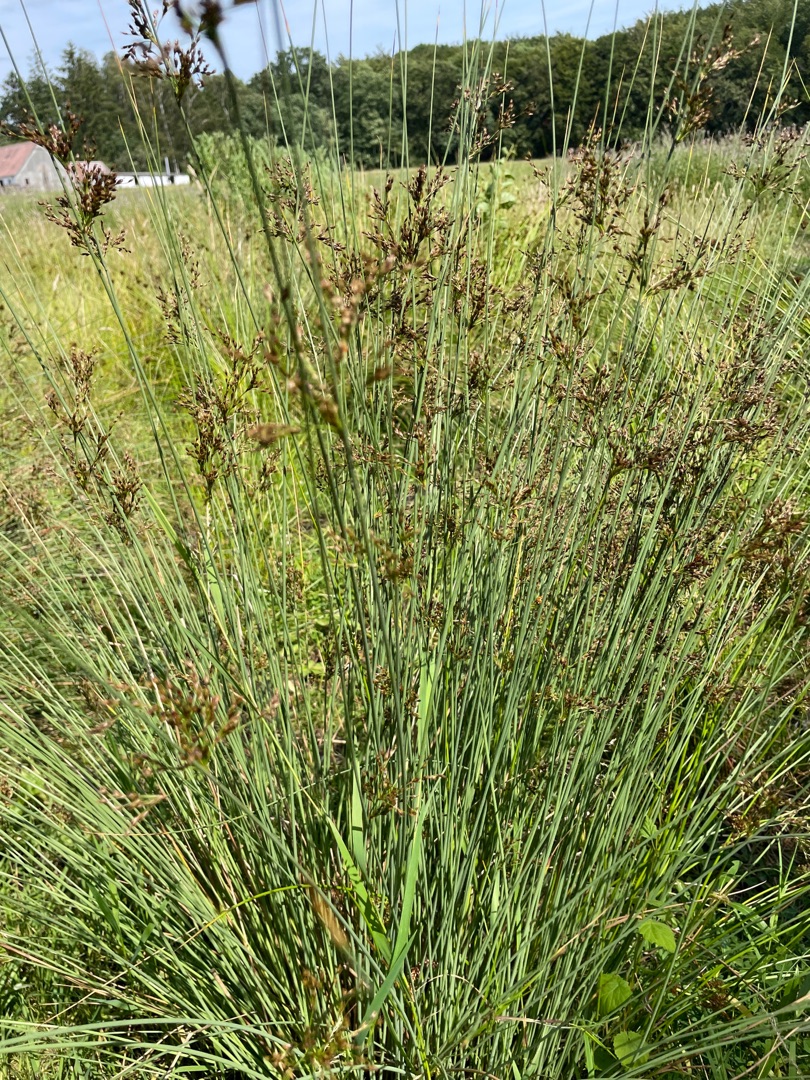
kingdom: Plantae
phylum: Tracheophyta
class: Liliopsida
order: Poales
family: Juncaceae
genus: Juncus
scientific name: Juncus inflexus
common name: Blågrå siv
